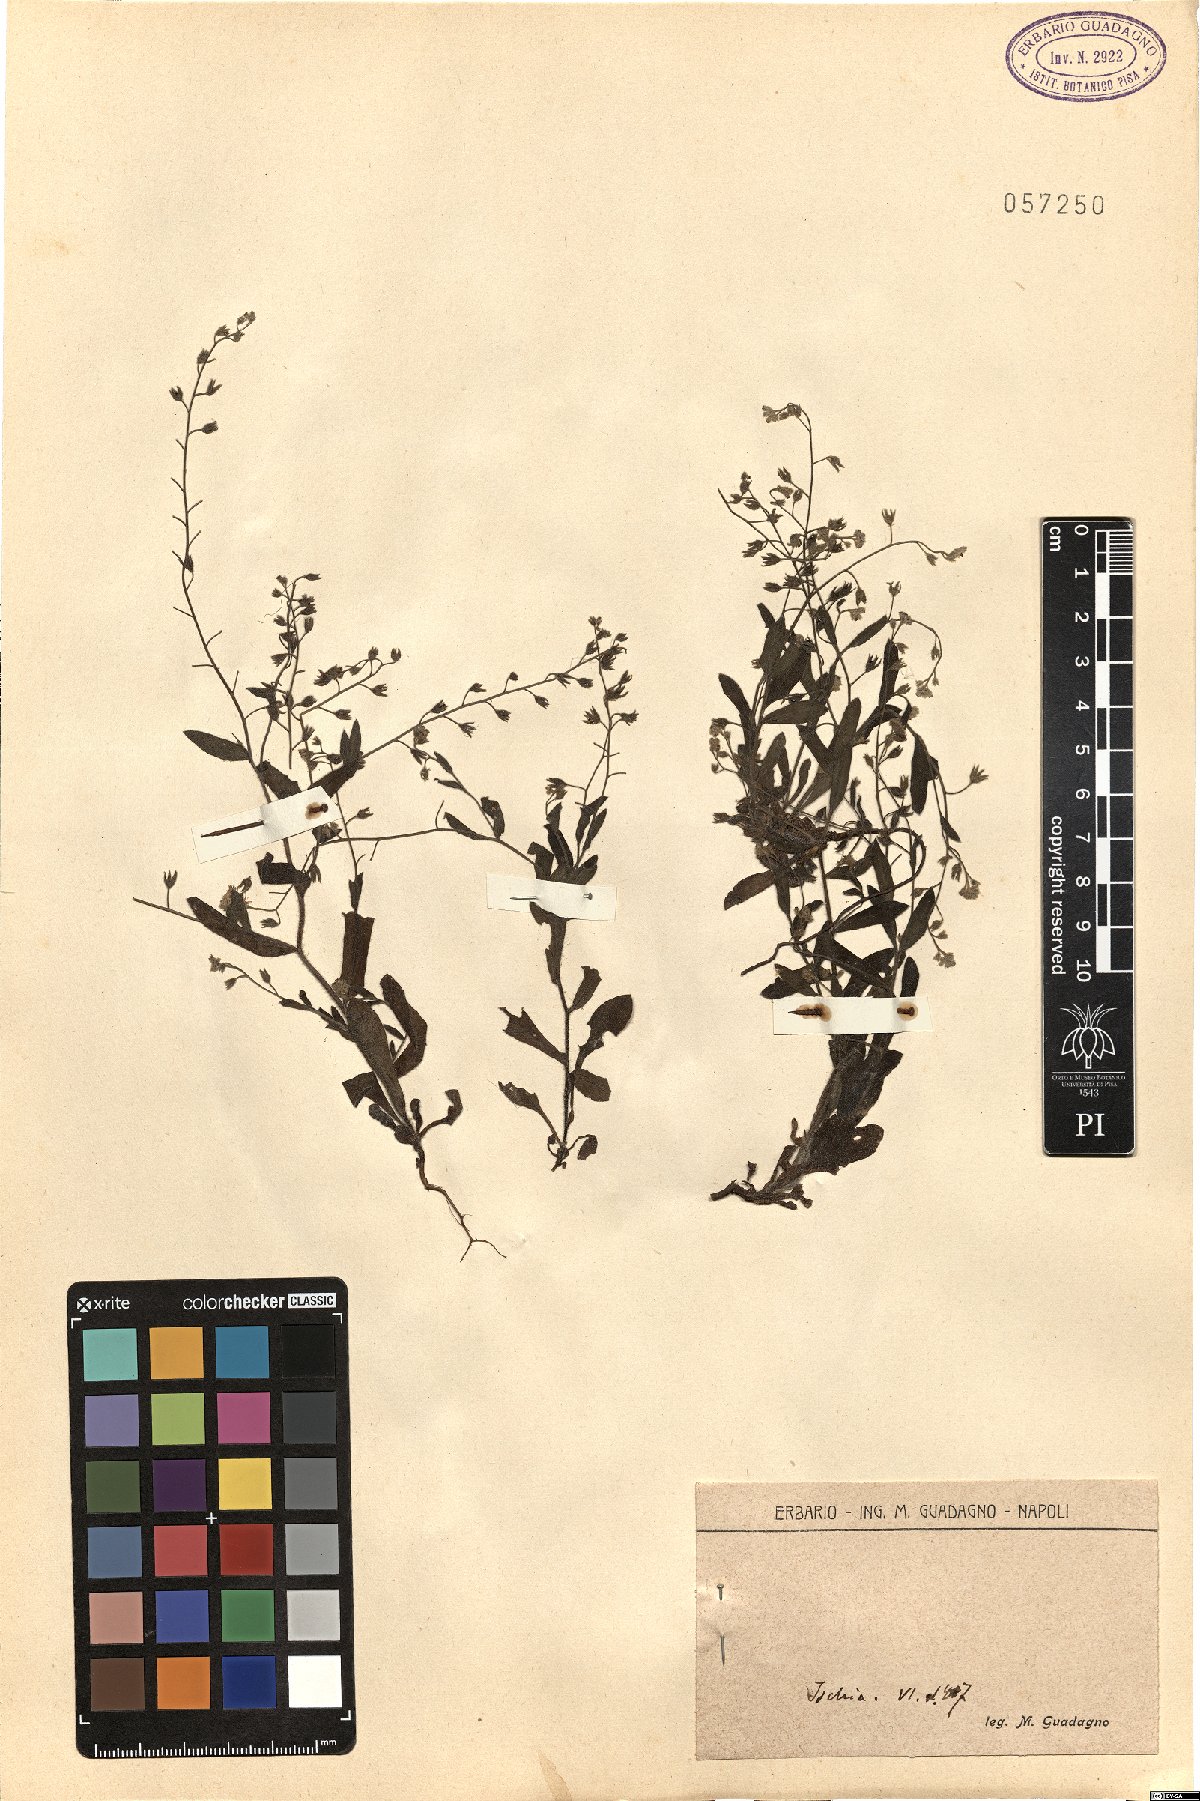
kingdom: Plantae
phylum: Tracheophyta
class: Magnoliopsida
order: Boraginales
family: Boraginaceae
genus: Myosotis
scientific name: Myosotis
